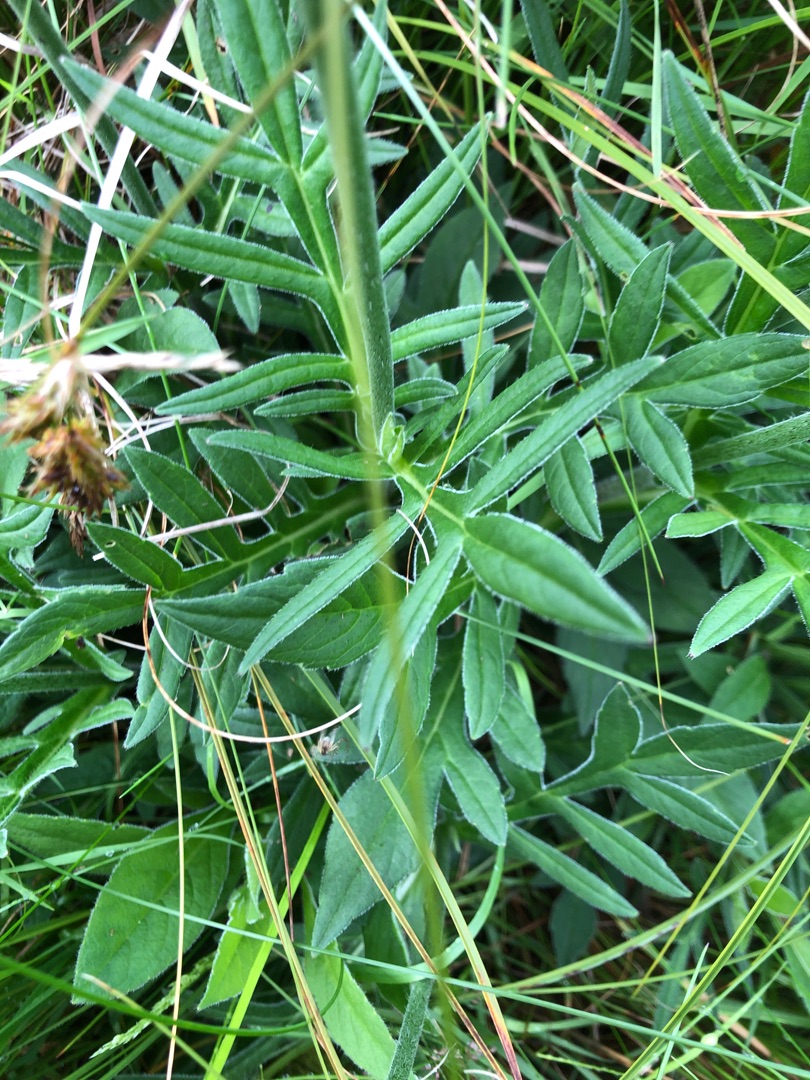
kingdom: Plantae
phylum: Tracheophyta
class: Magnoliopsida
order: Dipsacales
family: Caprifoliaceae
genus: Knautia
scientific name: Knautia arvensis
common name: Blåhat
